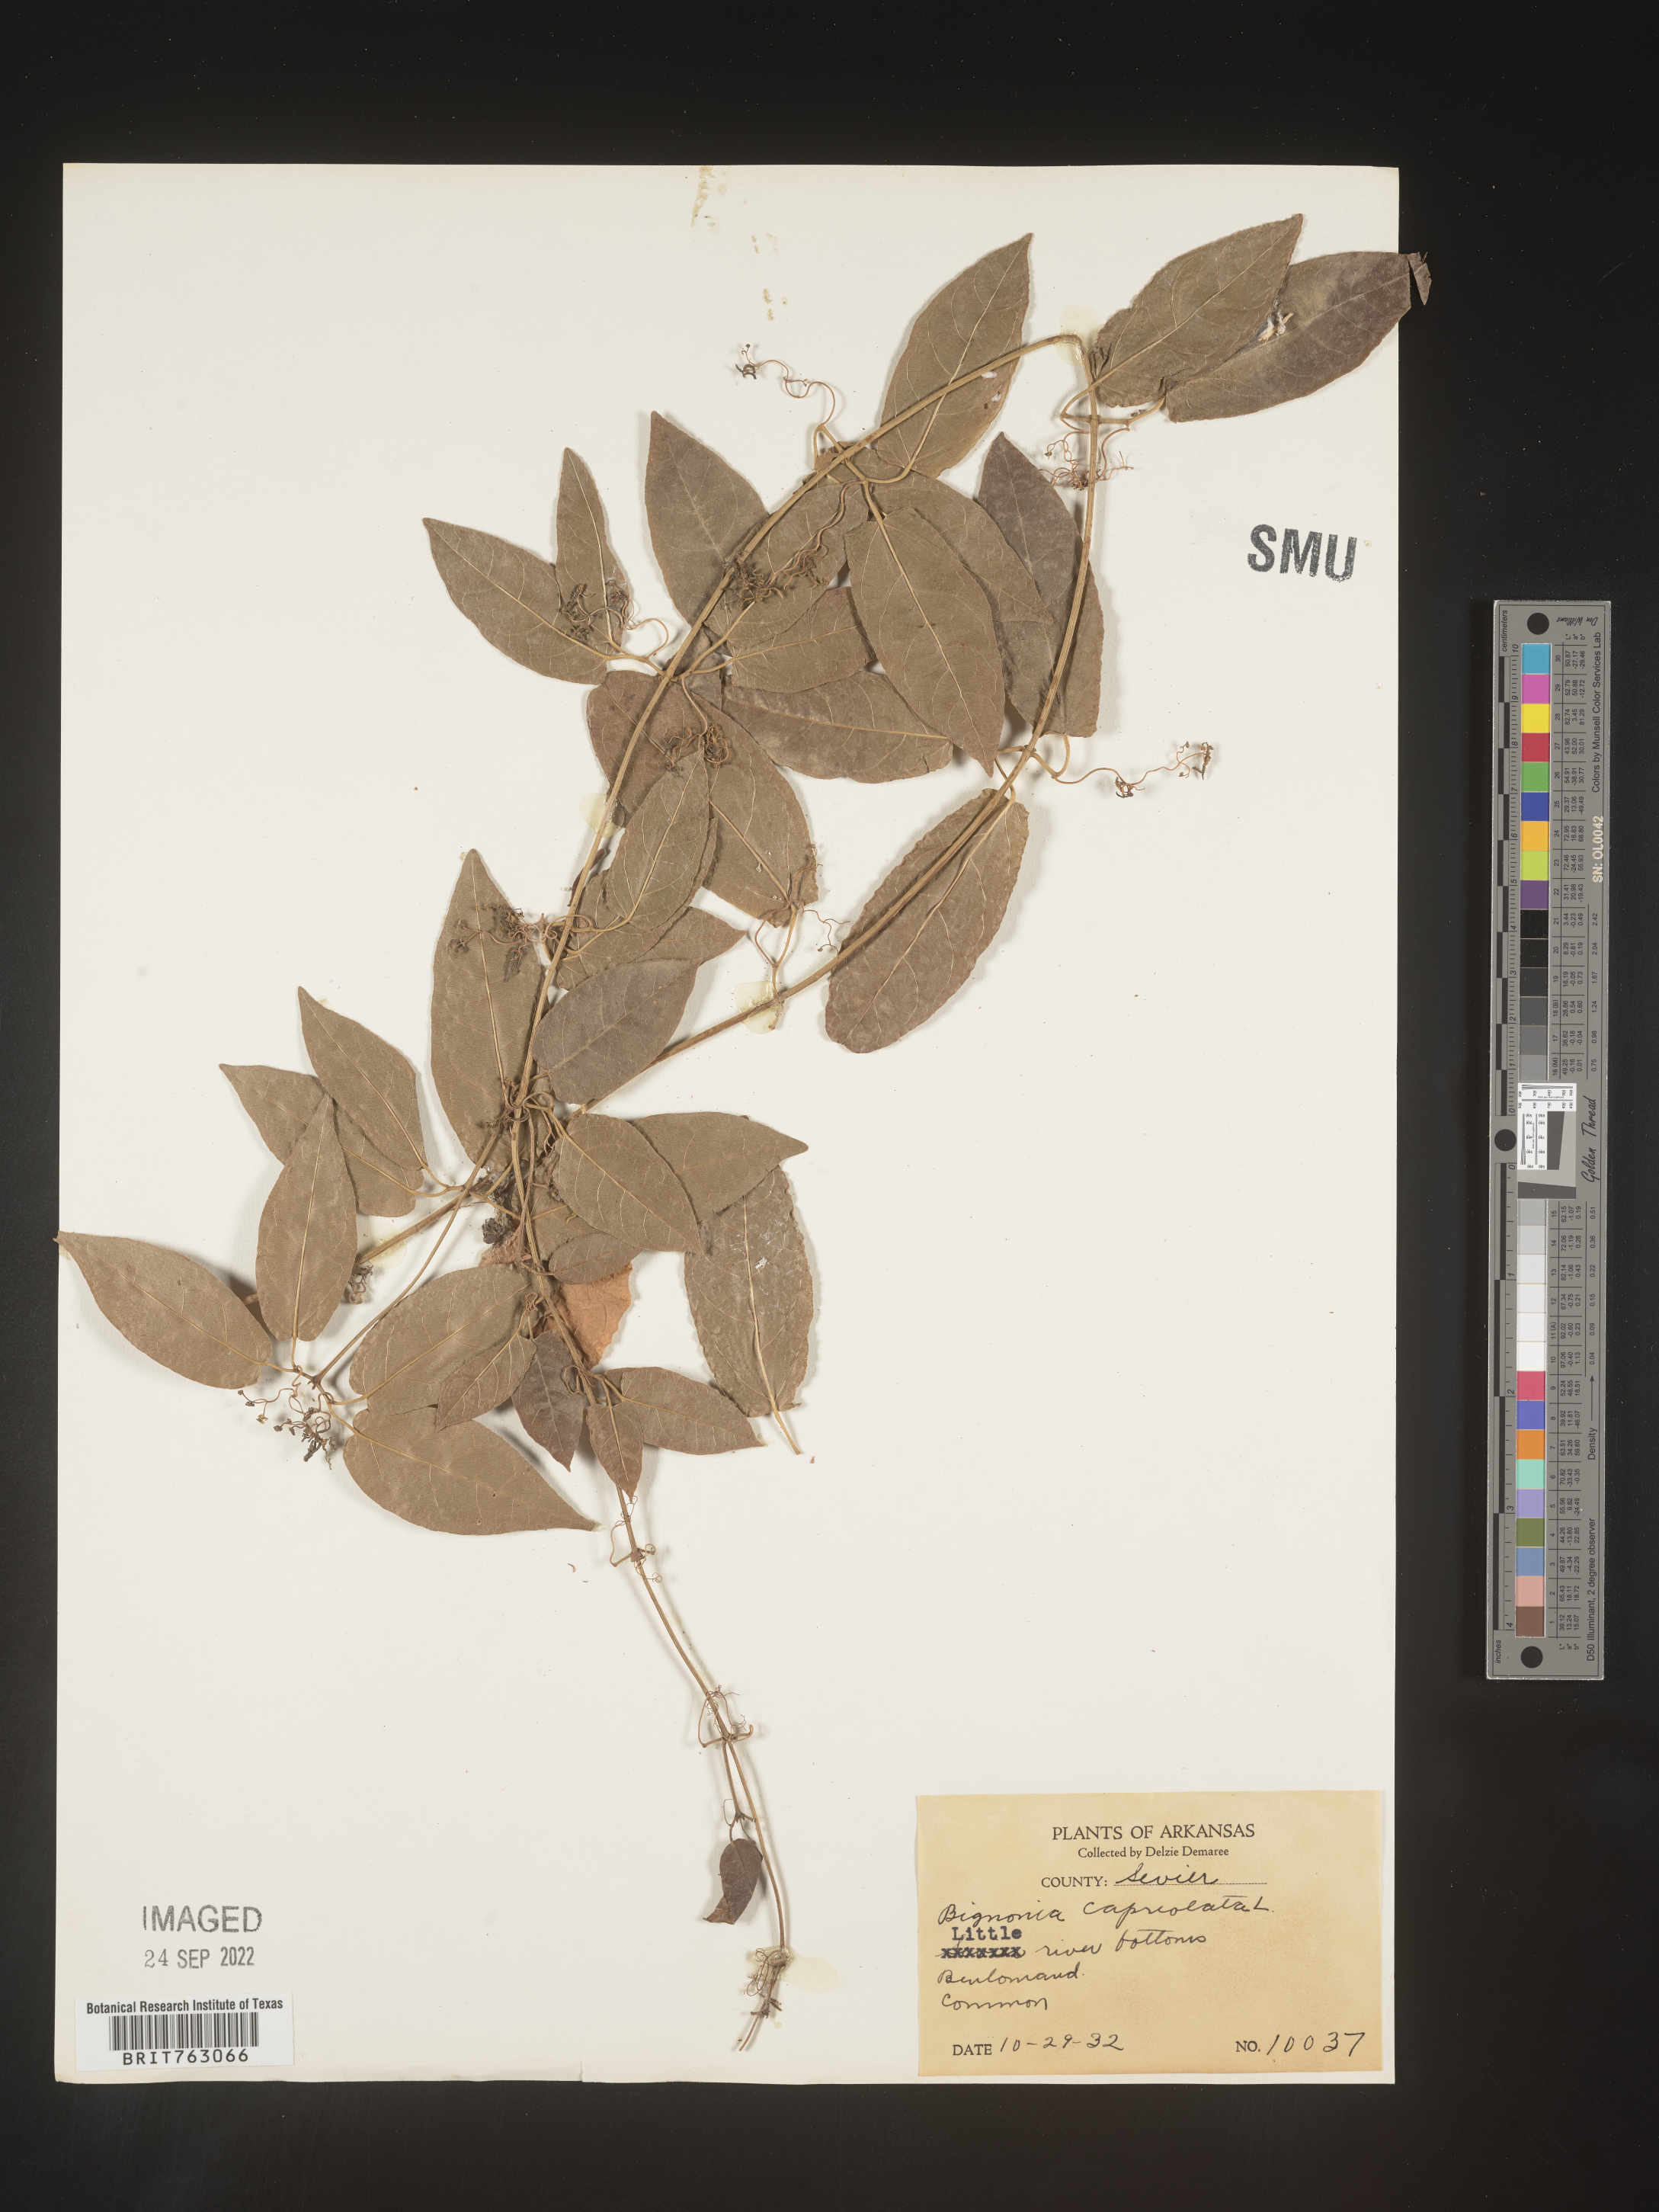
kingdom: Plantae
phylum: Tracheophyta
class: Magnoliopsida
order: Lamiales
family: Bignoniaceae
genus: Bignonia
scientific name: Bignonia capreolata
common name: Crossvine
